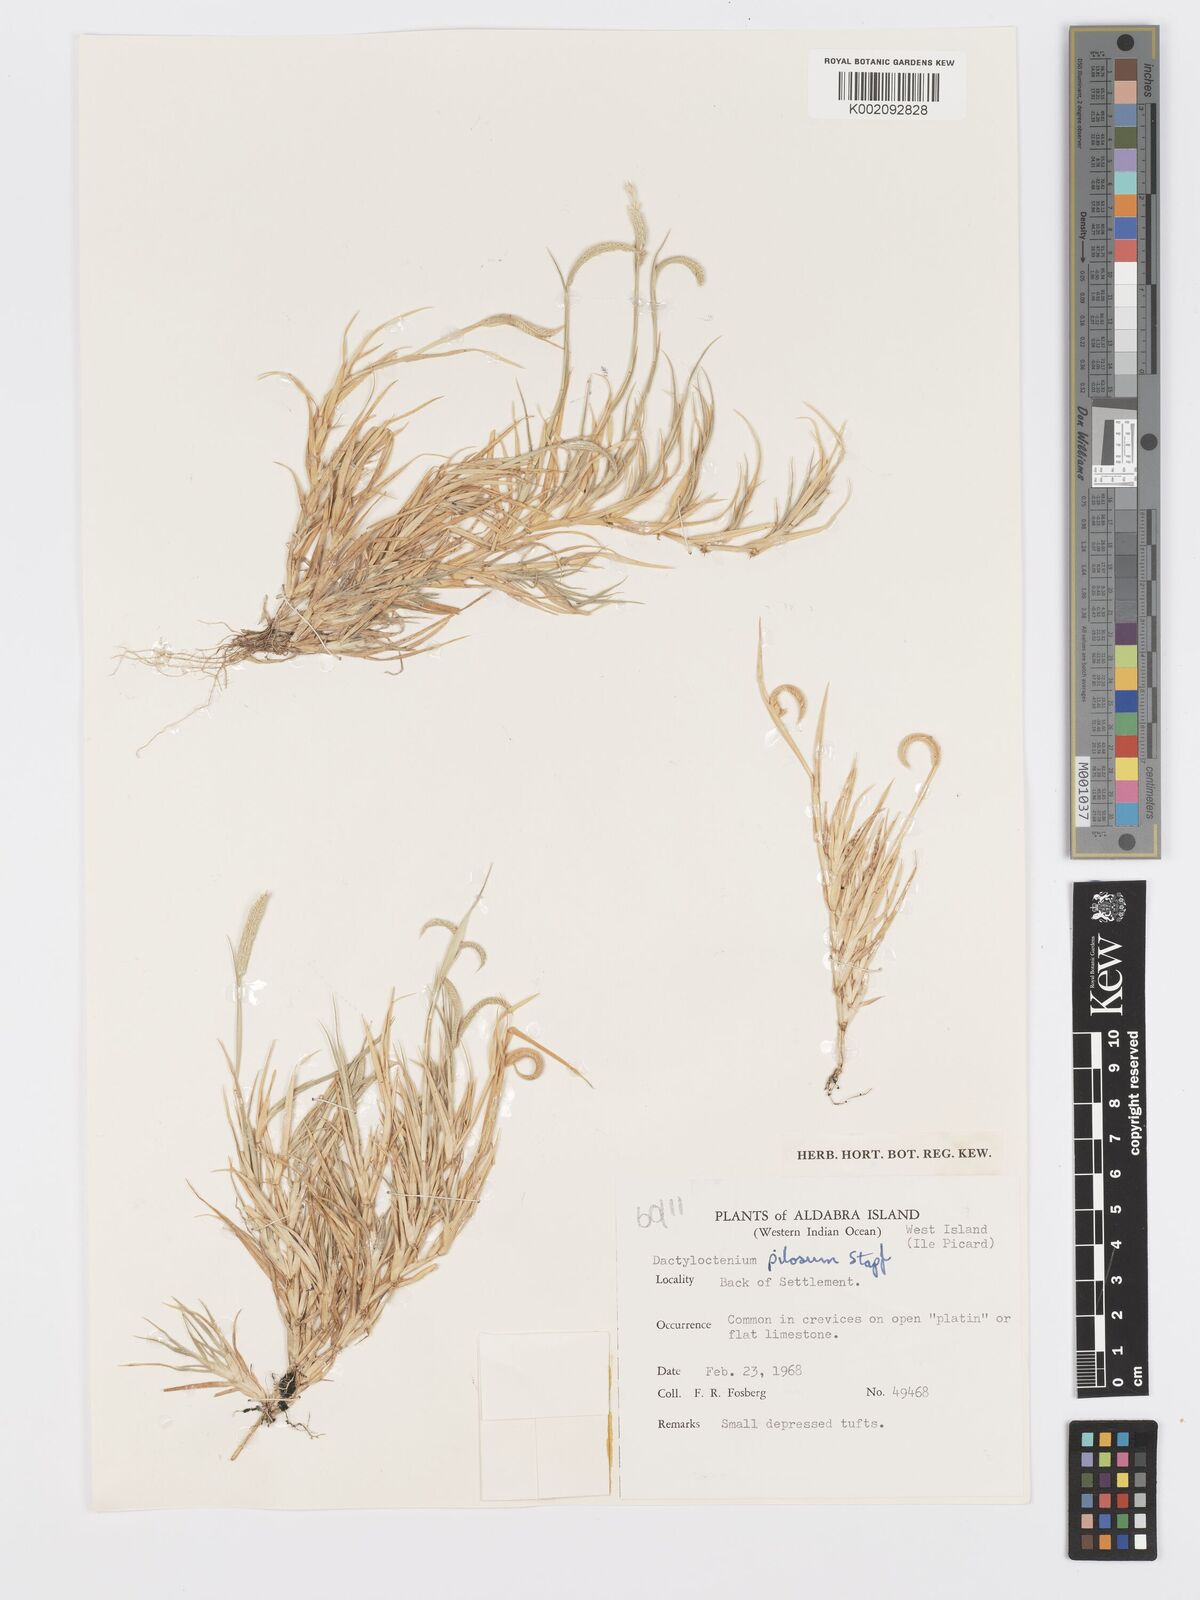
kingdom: Plantae
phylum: Tracheophyta
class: Liliopsida
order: Poales
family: Poaceae
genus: Dactyloctenium
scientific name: Dactyloctenium pilosum
